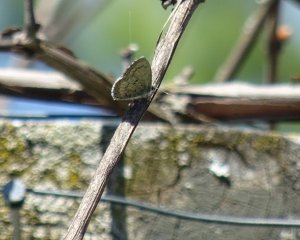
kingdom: Animalia
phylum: Arthropoda
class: Insecta
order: Lepidoptera
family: Lycaenidae
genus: Celastrina
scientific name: Celastrina lucia
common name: Northern Spring Azure
